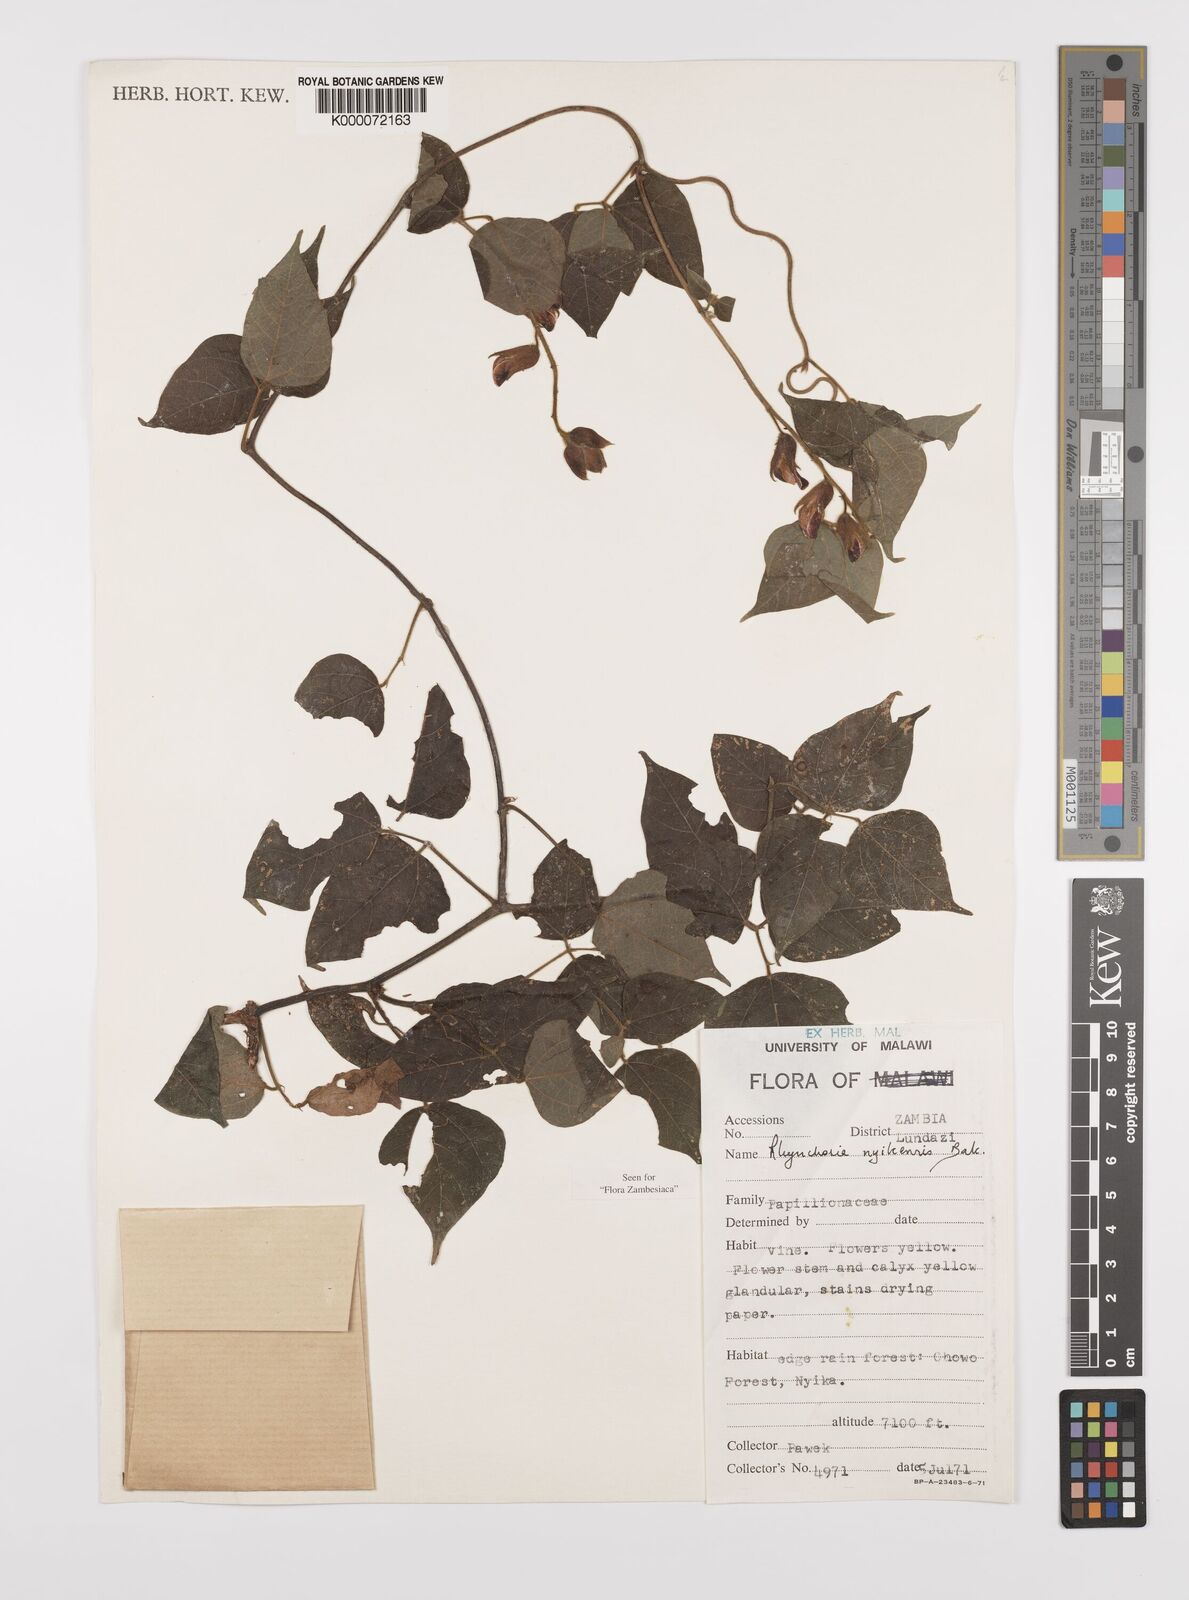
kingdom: Plantae
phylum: Tracheophyta
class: Magnoliopsida
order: Fabales
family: Fabaceae
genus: Rhynchosia
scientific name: Rhynchosia nyikensis
